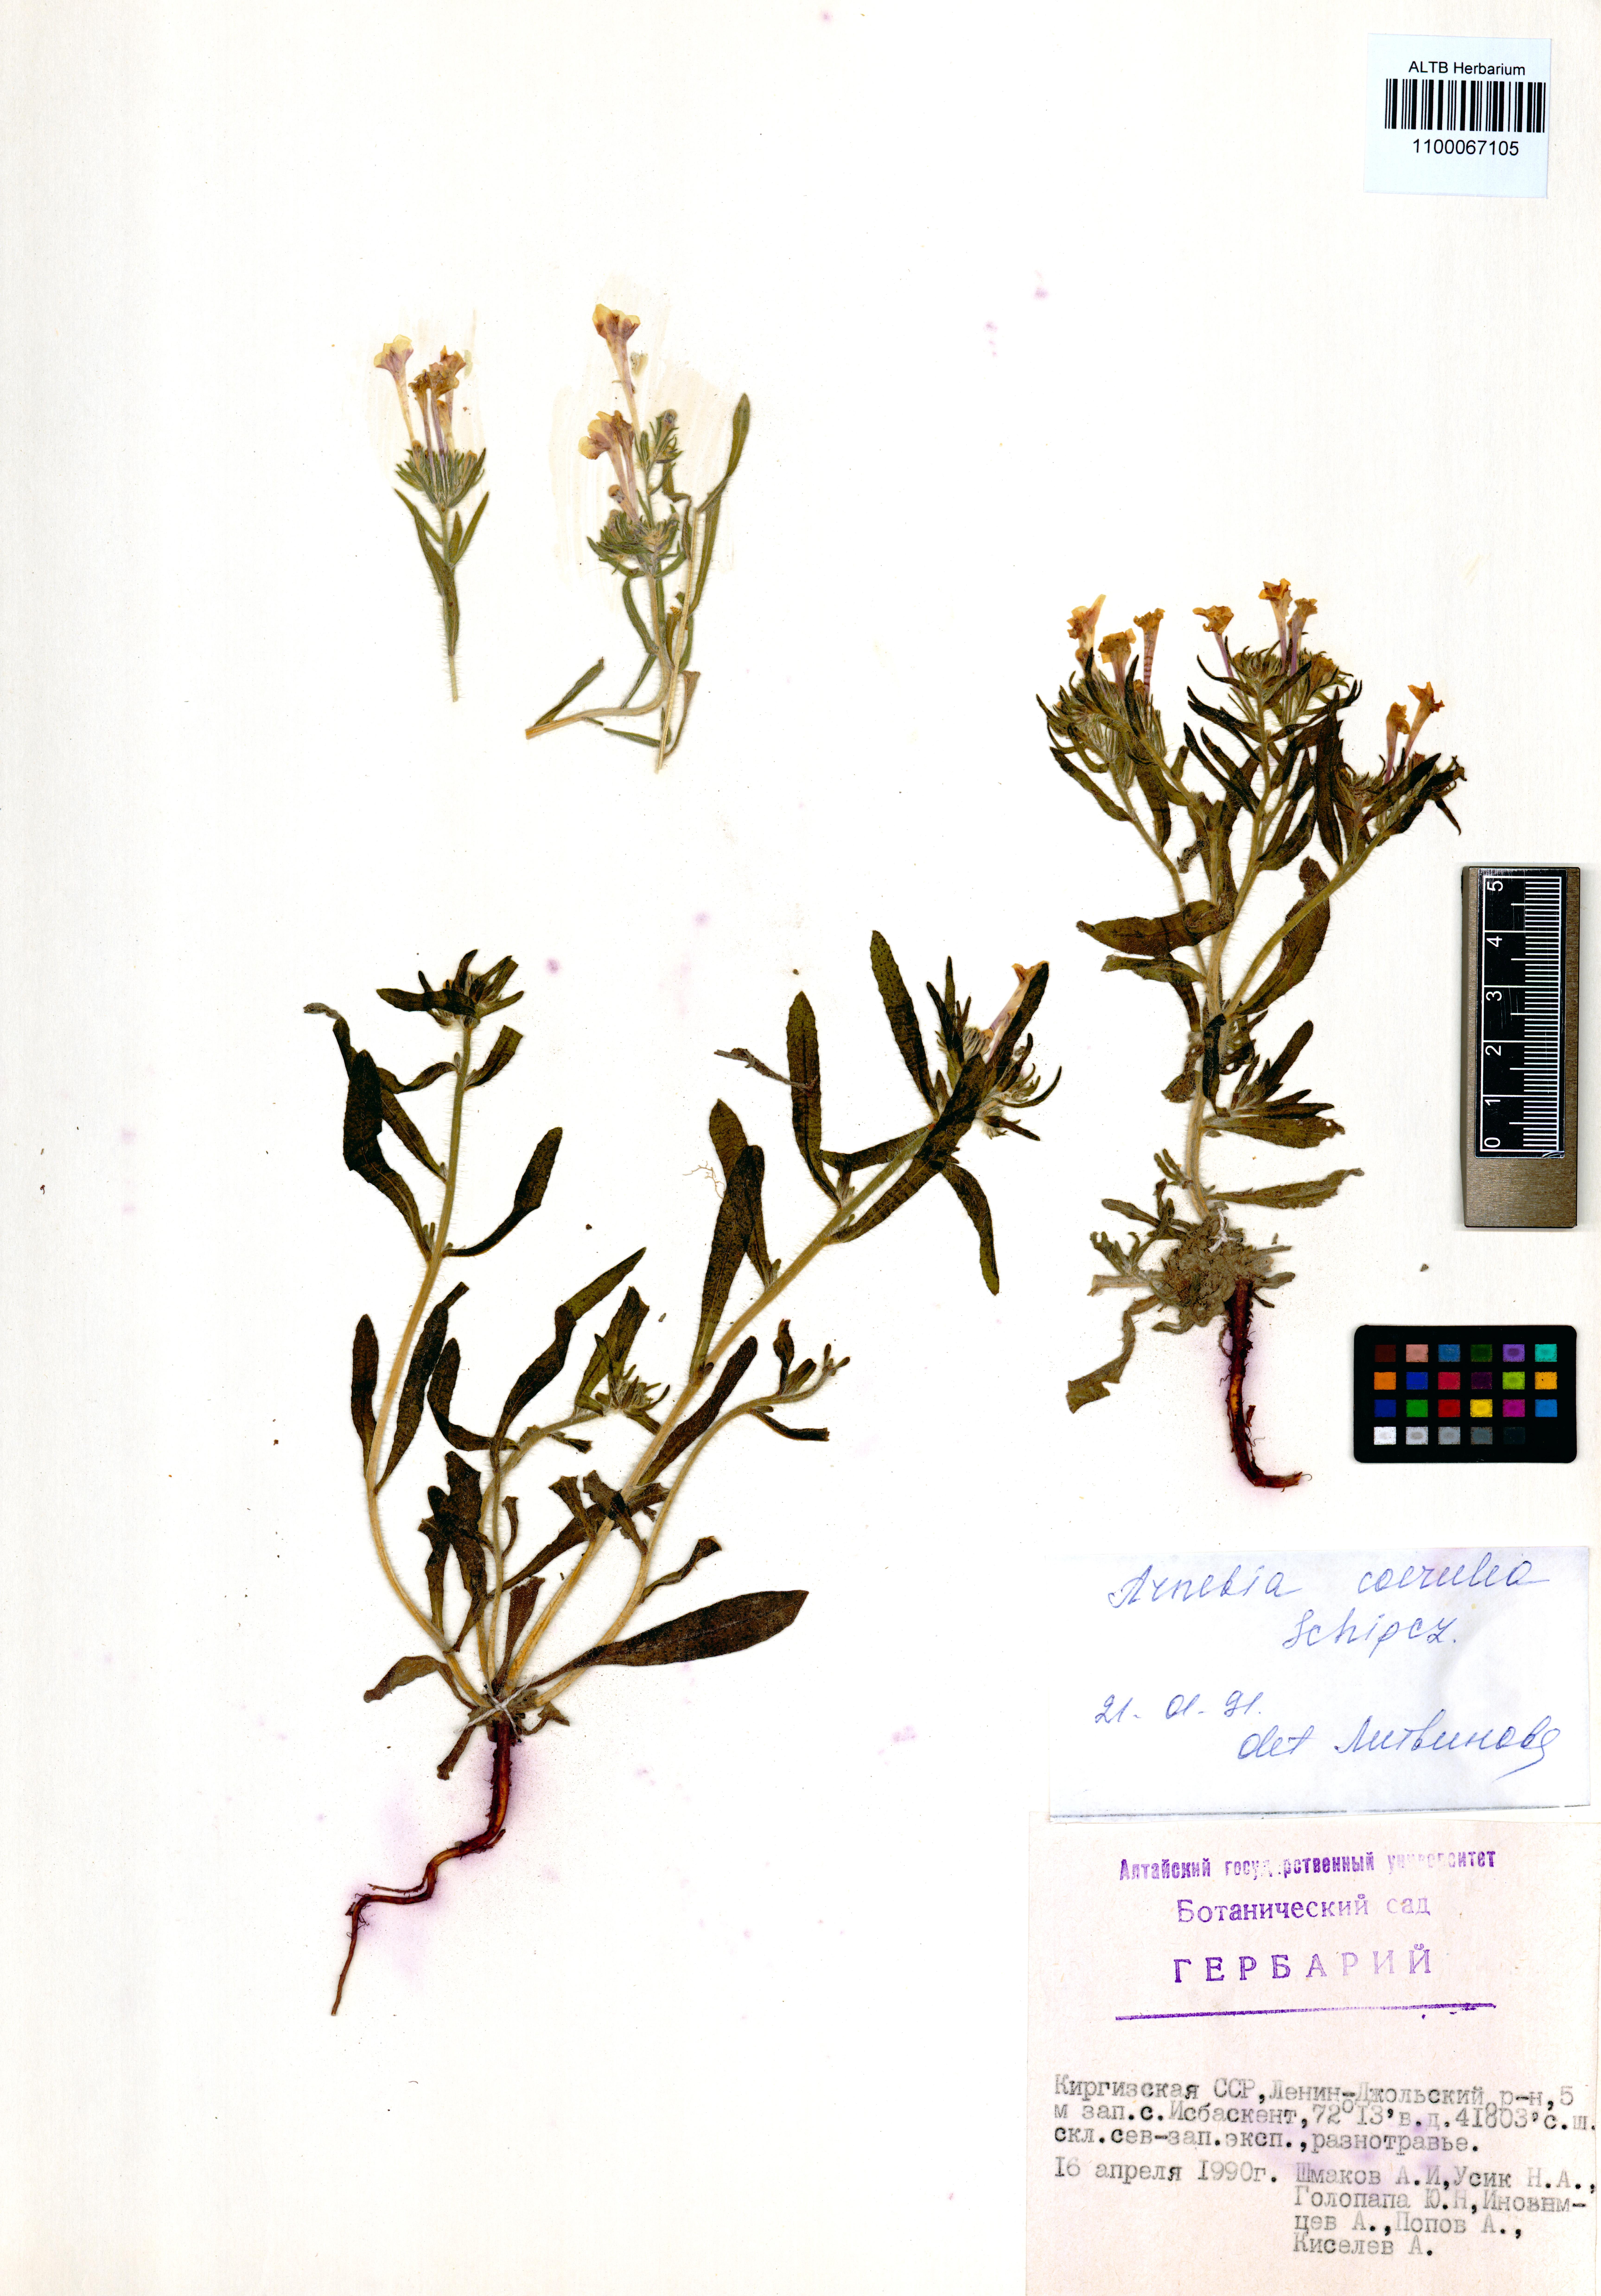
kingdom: Plantae
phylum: Tracheophyta
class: Magnoliopsida
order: Boraginales
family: Boraginaceae
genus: Arnebia
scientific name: Arnebia coerulea
